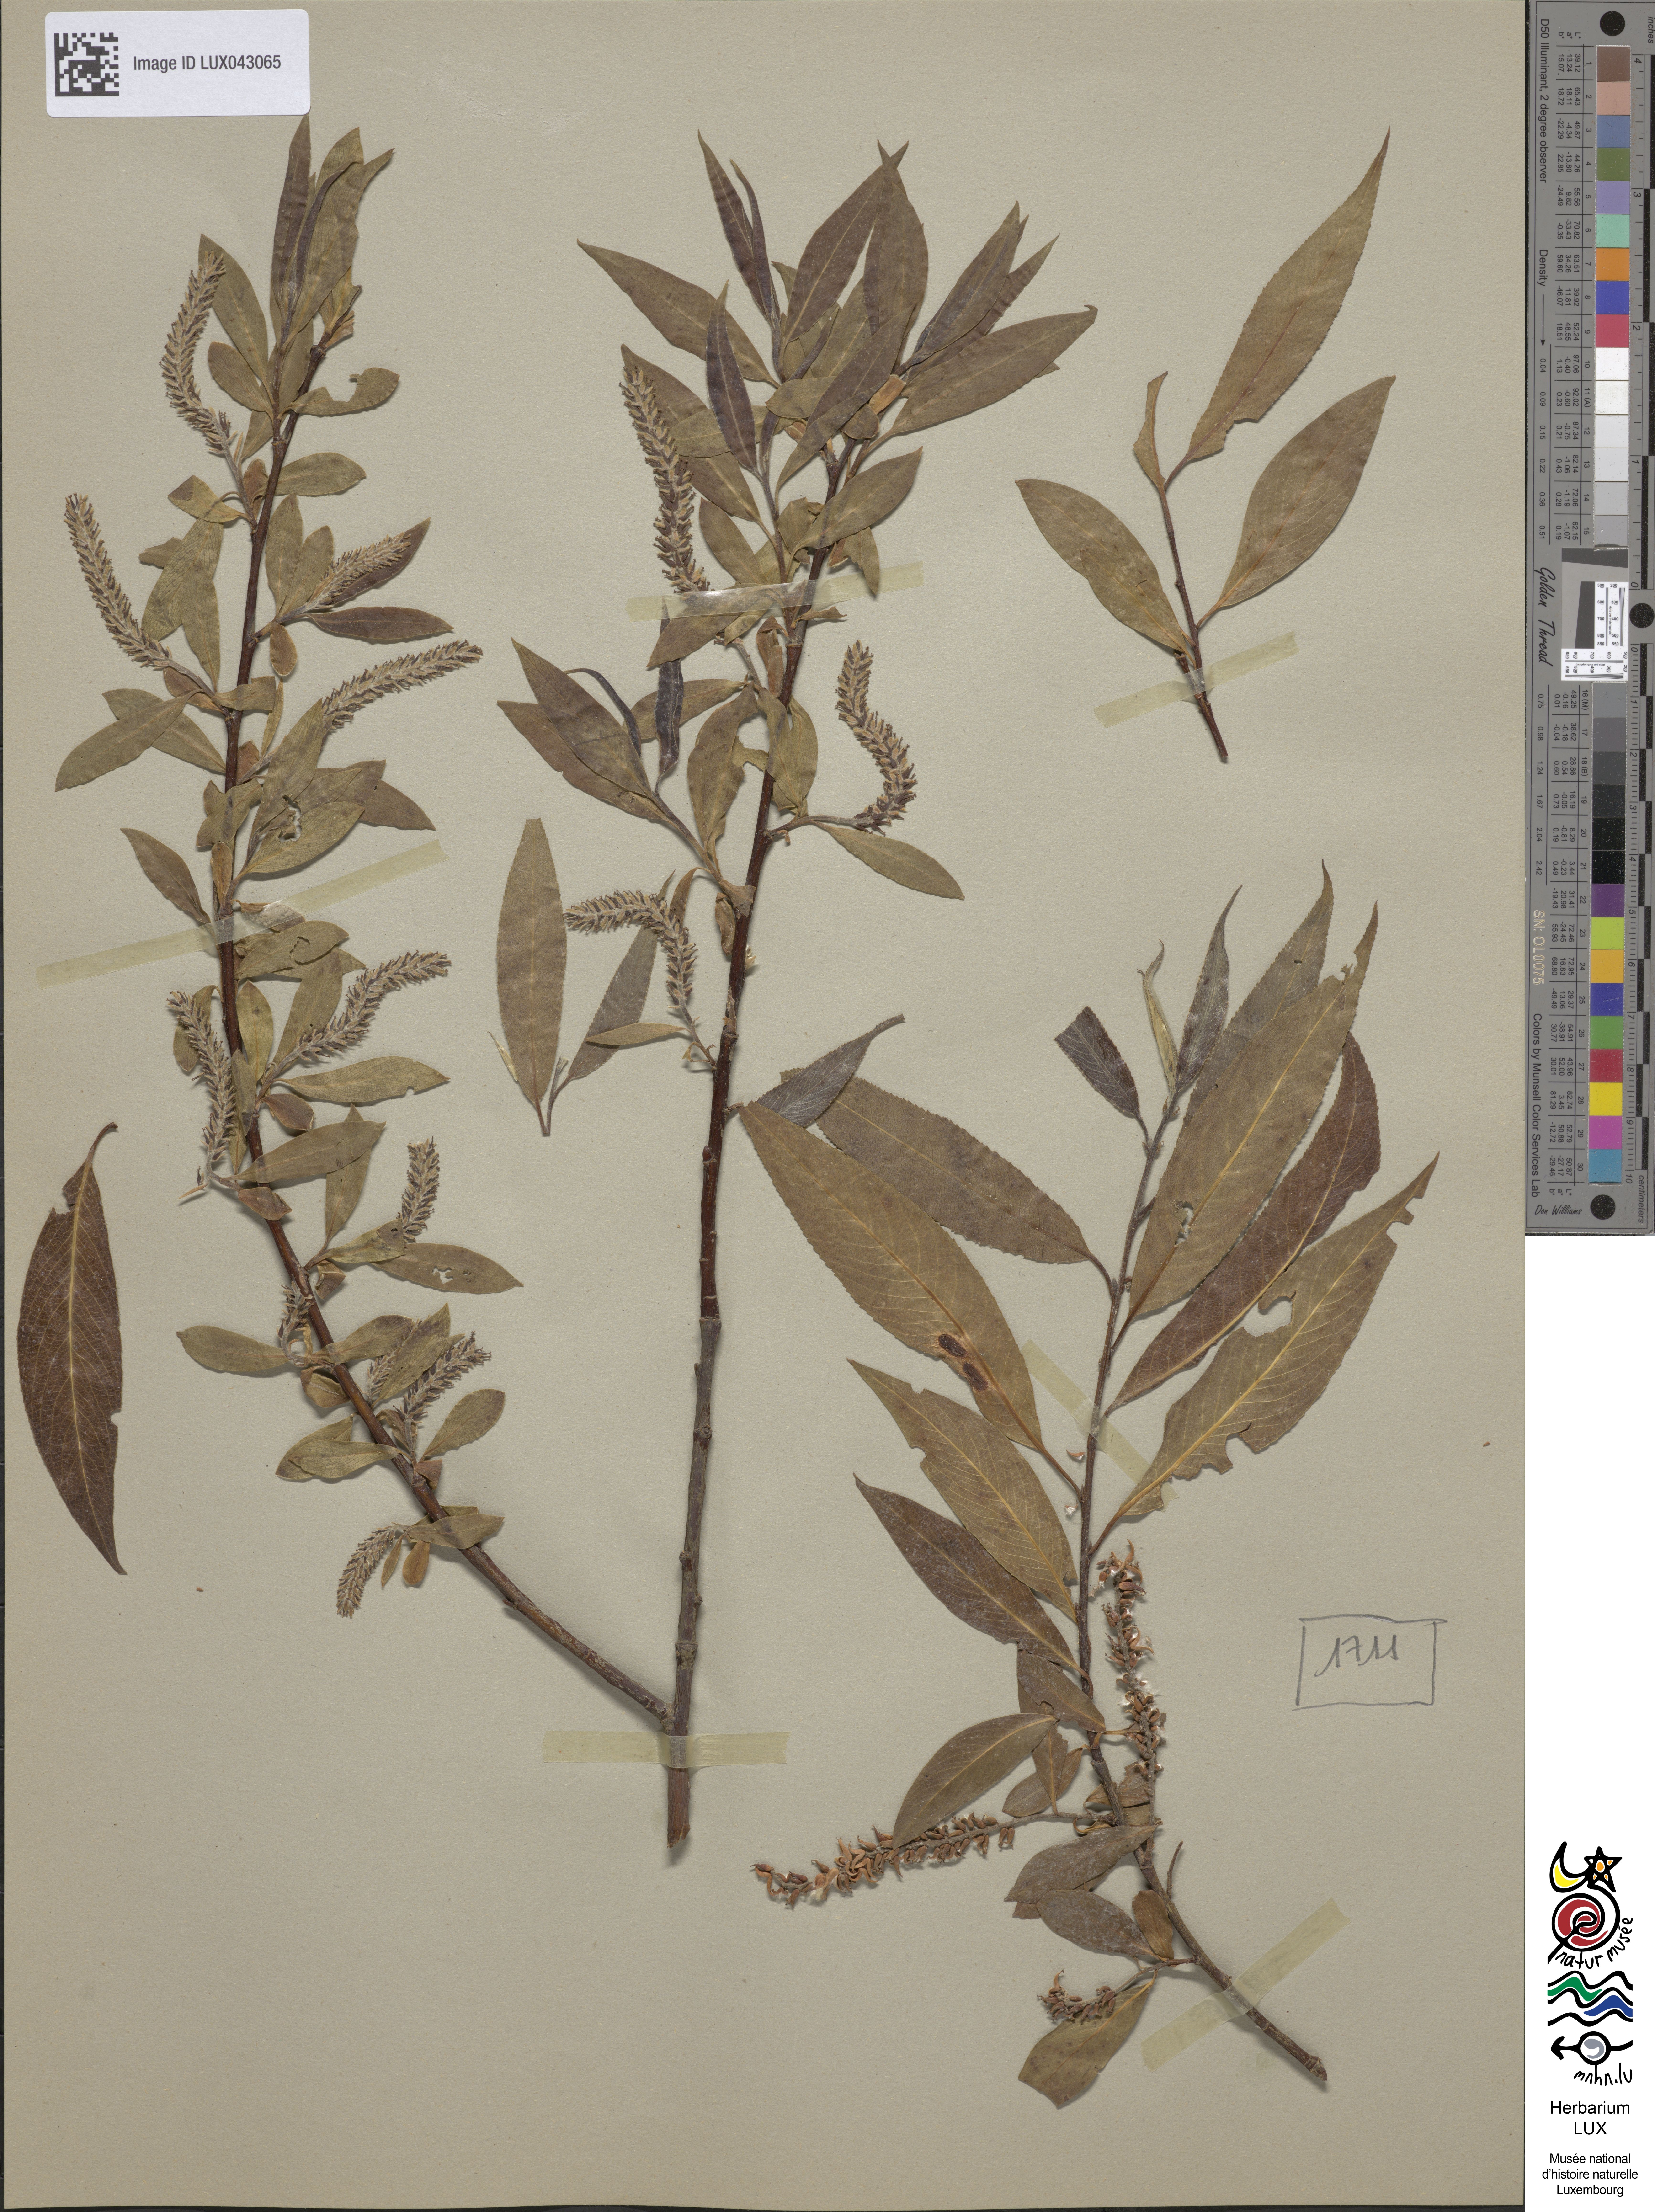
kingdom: Plantae
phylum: Tracheophyta
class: Magnoliopsida
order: Malpighiales
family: Salicaceae
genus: Salix
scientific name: Salix rubens
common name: Hybrid crack willow
